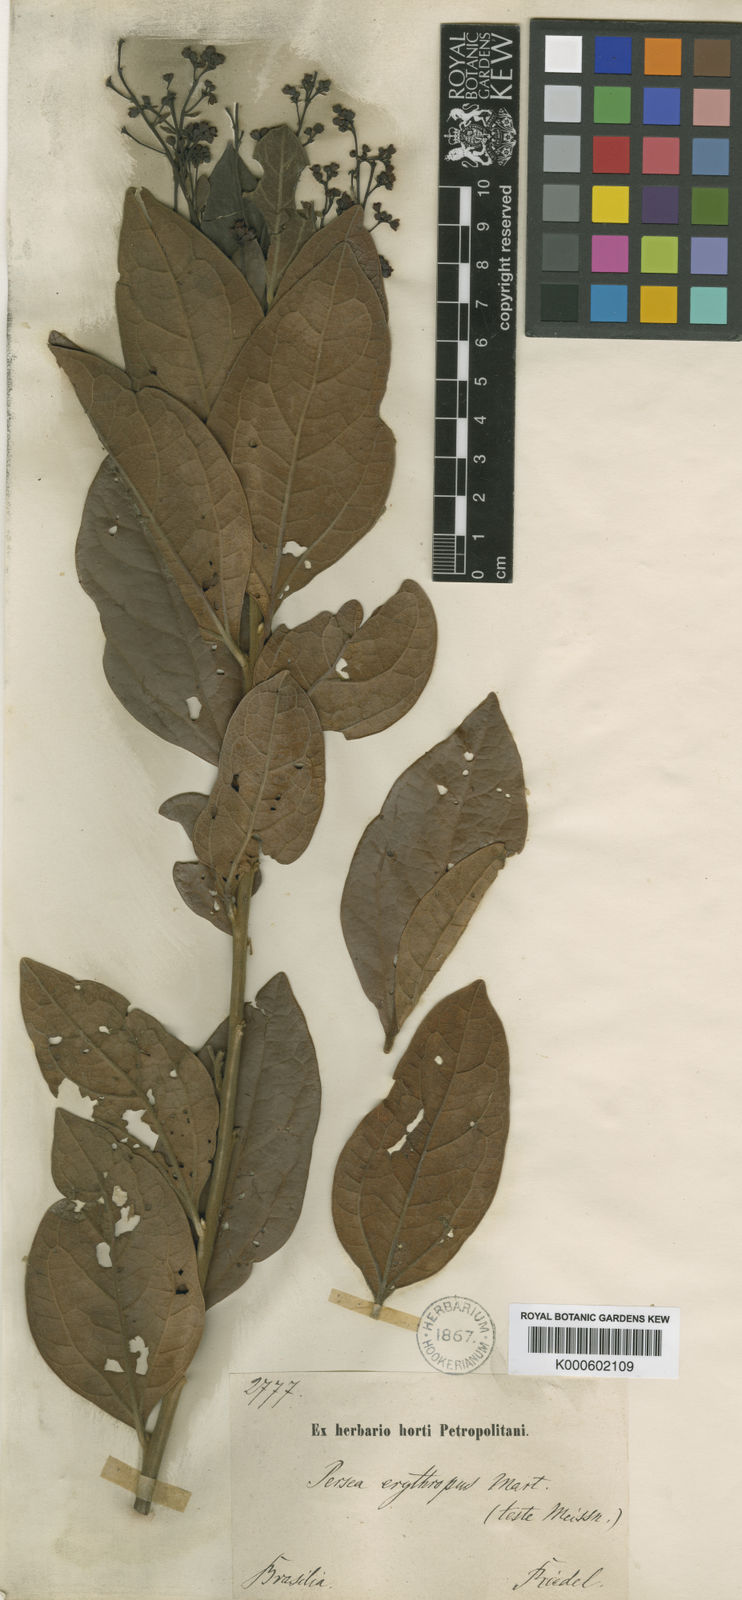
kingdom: Plantae
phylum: Tracheophyta
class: Magnoliopsida
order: Laurales
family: Lauraceae
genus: Aiouea
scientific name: Aiouea erythropus
